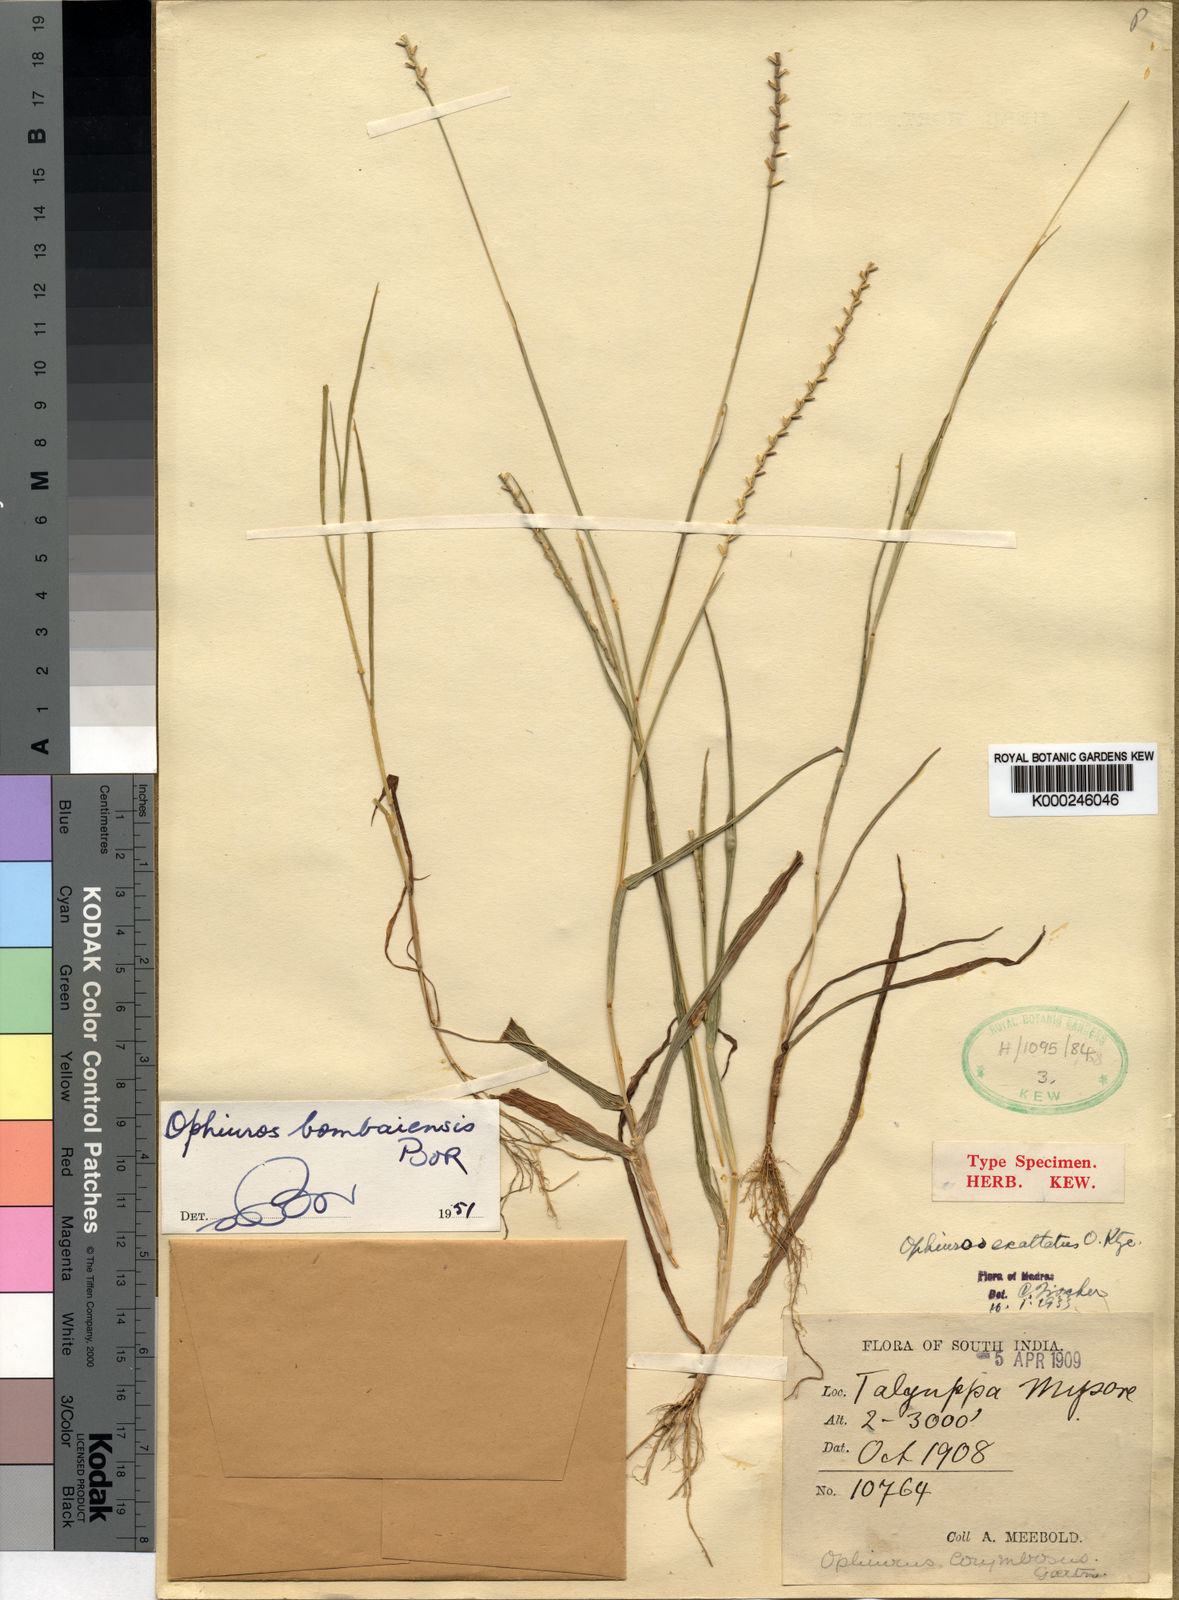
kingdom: Plantae
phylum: Tracheophyta
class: Liliopsida
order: Poales
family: Poaceae
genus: Glyphochloa
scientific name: Glyphochloa bombaiensis
